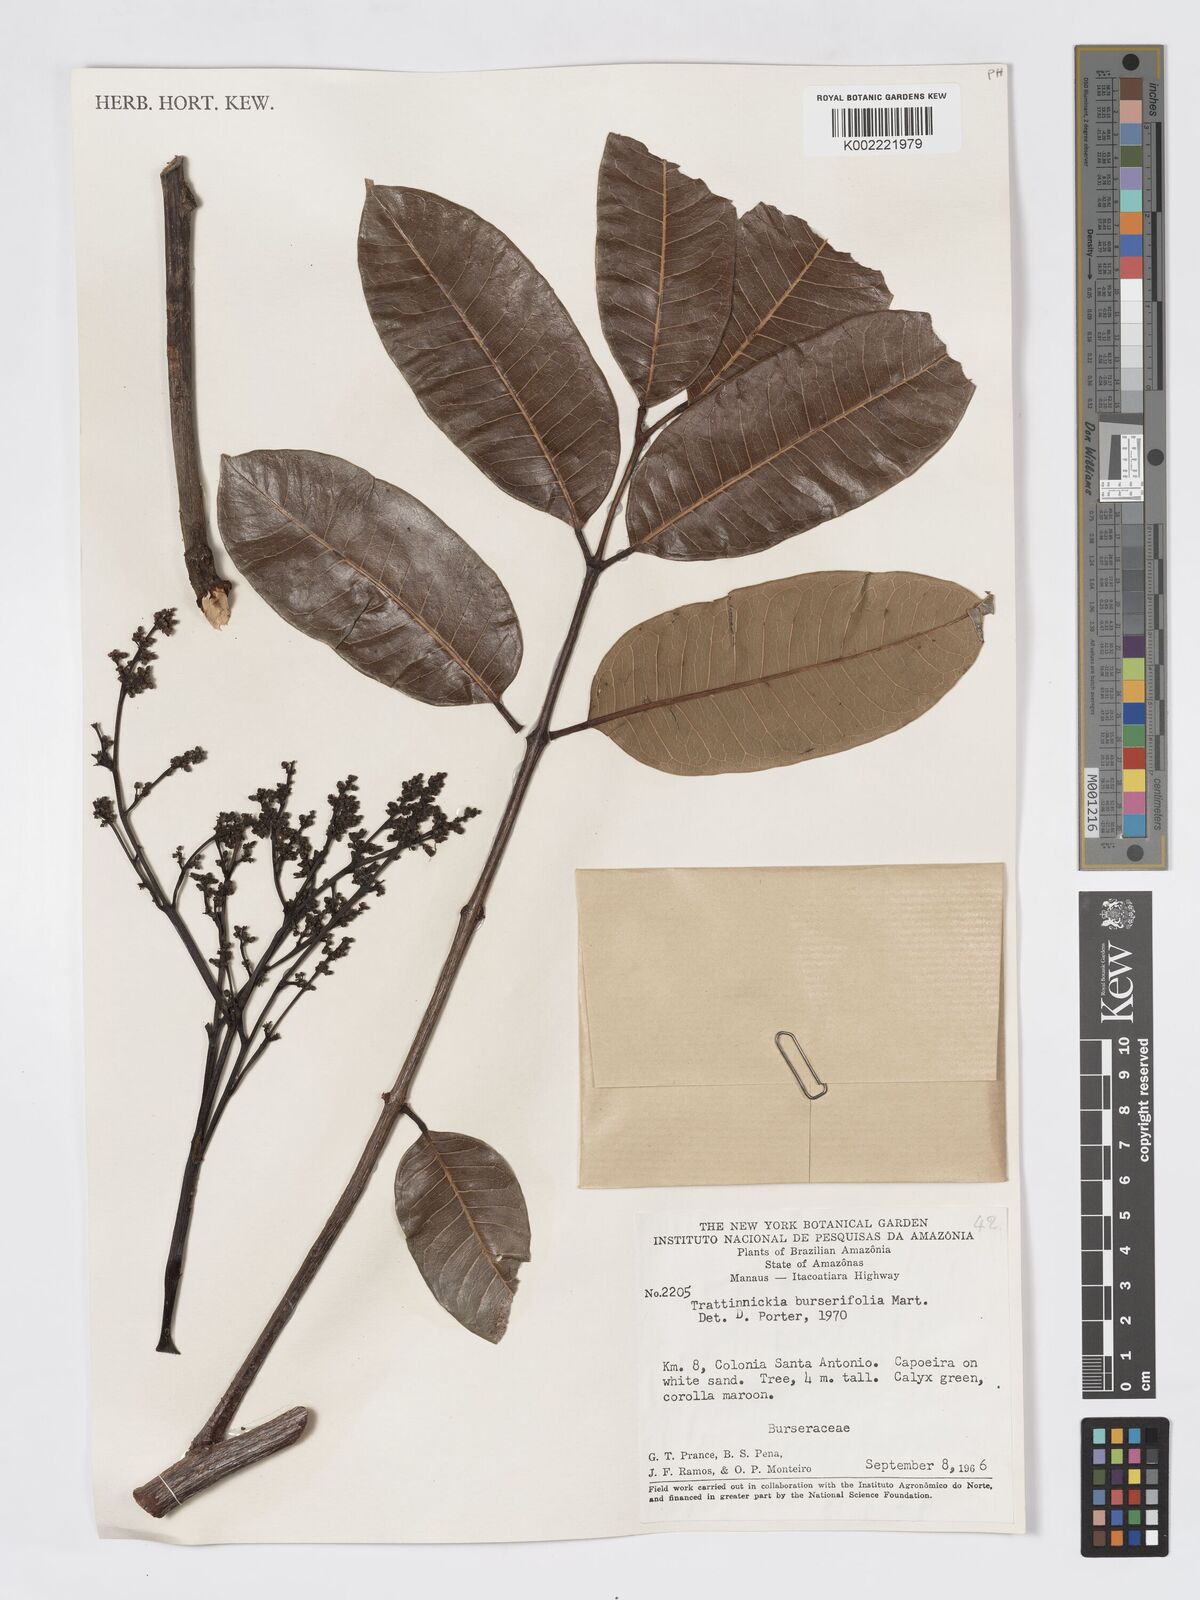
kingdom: Plantae
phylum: Tracheophyta
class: Magnoliopsida
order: Sapindales
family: Burseraceae
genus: Trattinnickia
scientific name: Trattinnickia burserifolia
